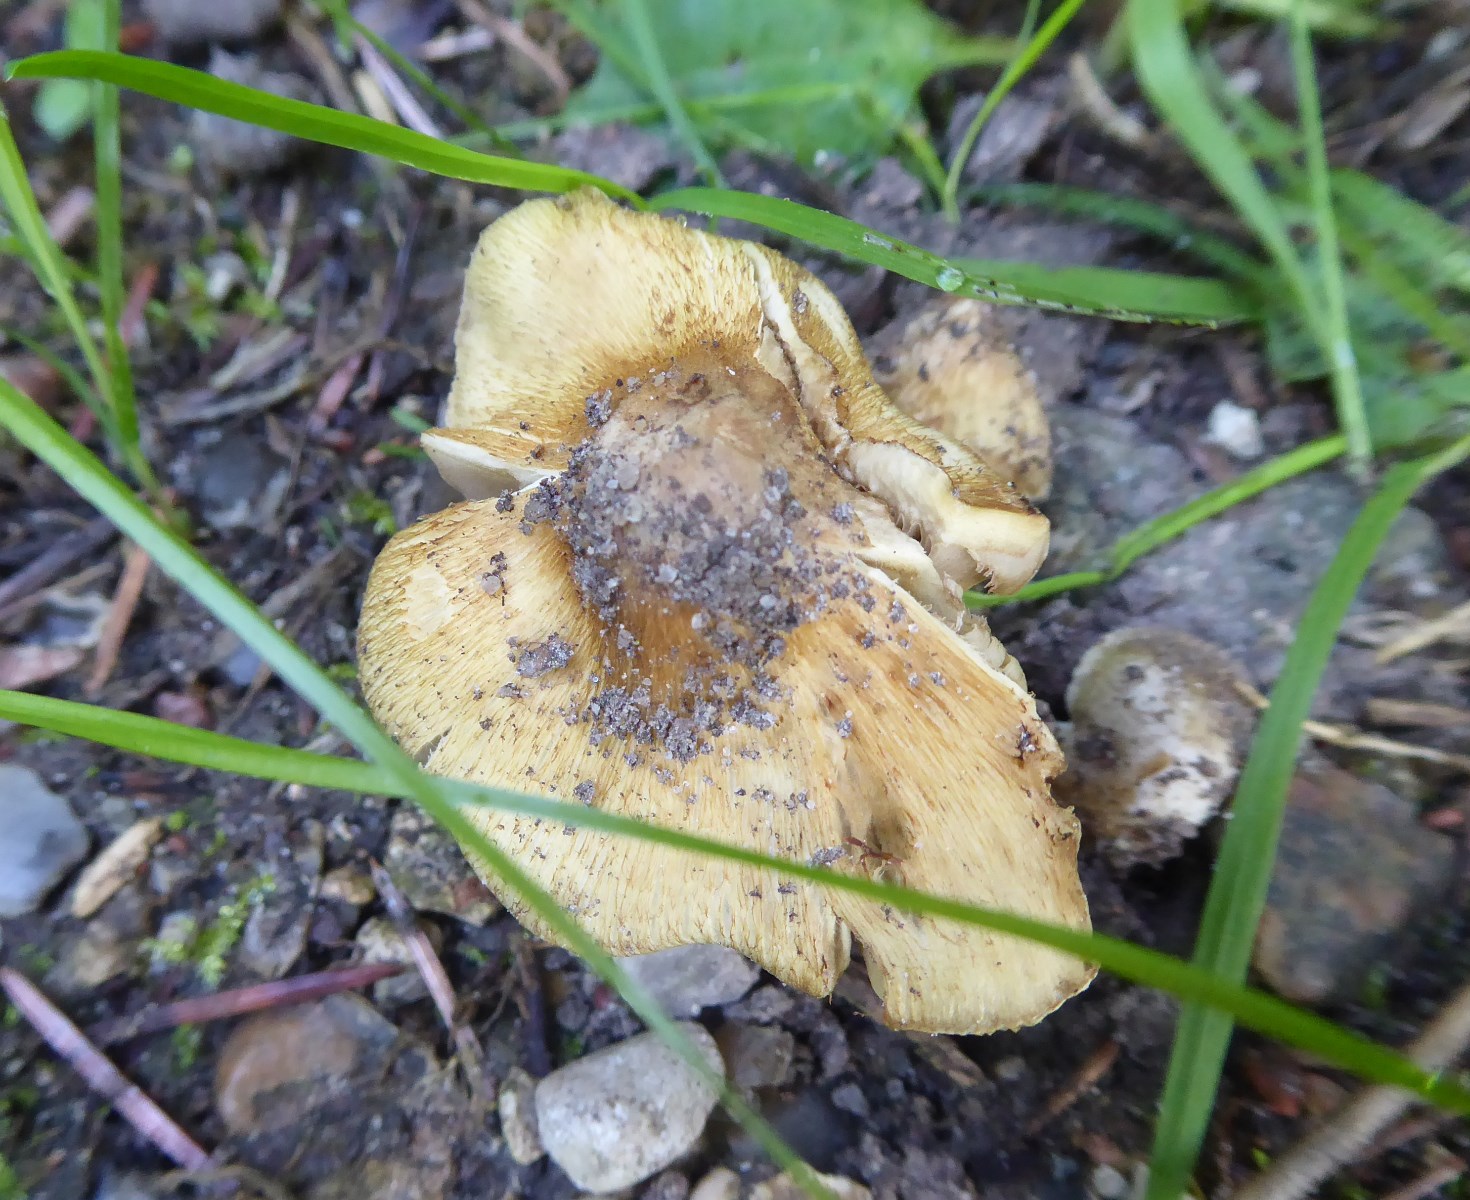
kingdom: Fungi
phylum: Basidiomycota
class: Agaricomycetes
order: Agaricales
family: Inocybaceae
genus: Inocybe
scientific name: Inocybe
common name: trævlhat
